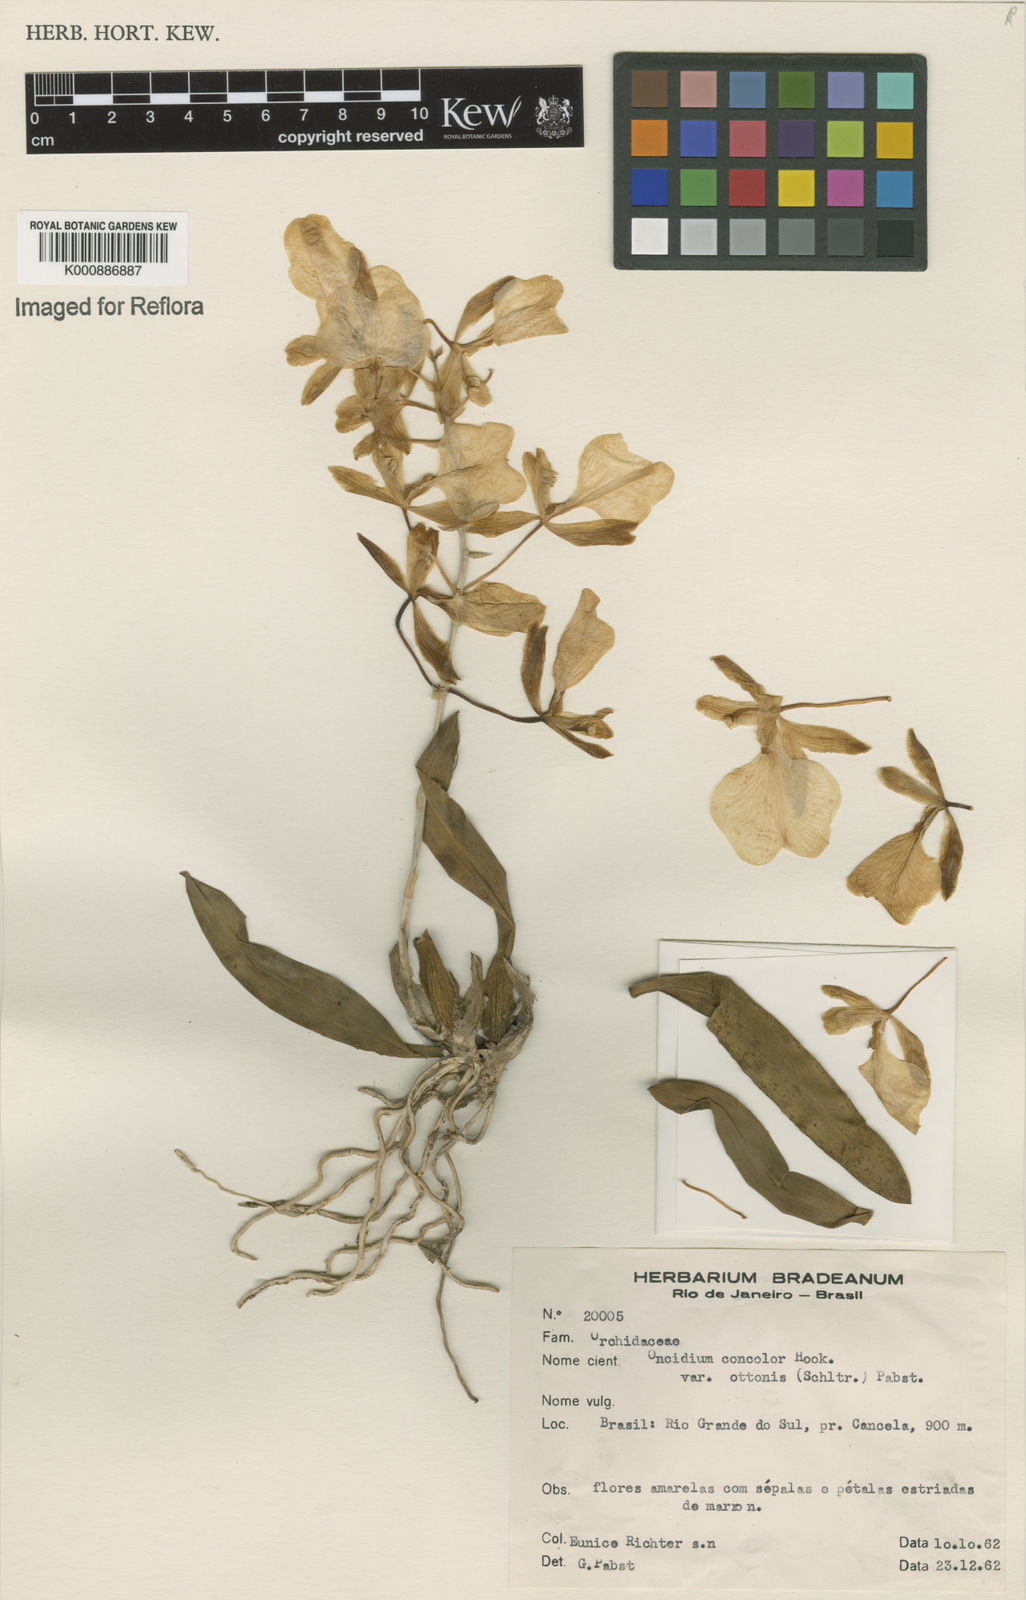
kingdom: Plantae
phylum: Tracheophyta
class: Liliopsida
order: Asparagales
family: Orchidaceae
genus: Gomesa
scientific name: Gomesa concolor
